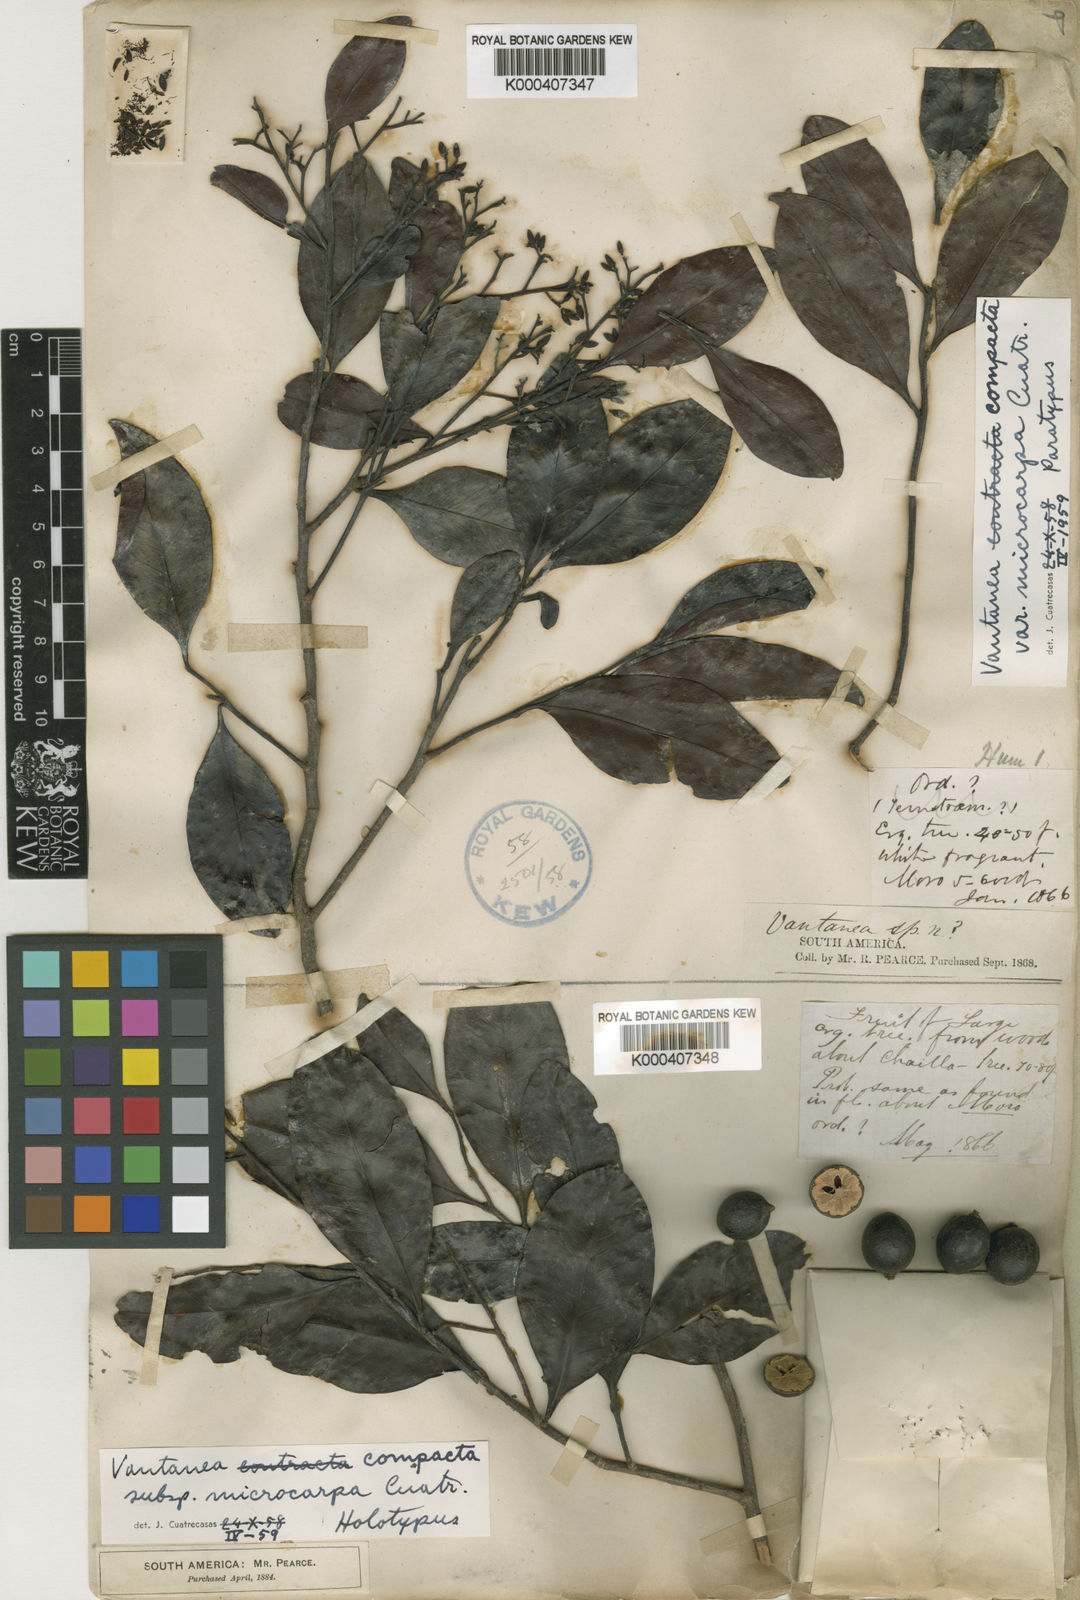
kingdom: Plantae
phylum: Tracheophyta
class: Magnoliopsida
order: Malpighiales
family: Humiriaceae
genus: Vantanea
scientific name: Vantanea compacta
